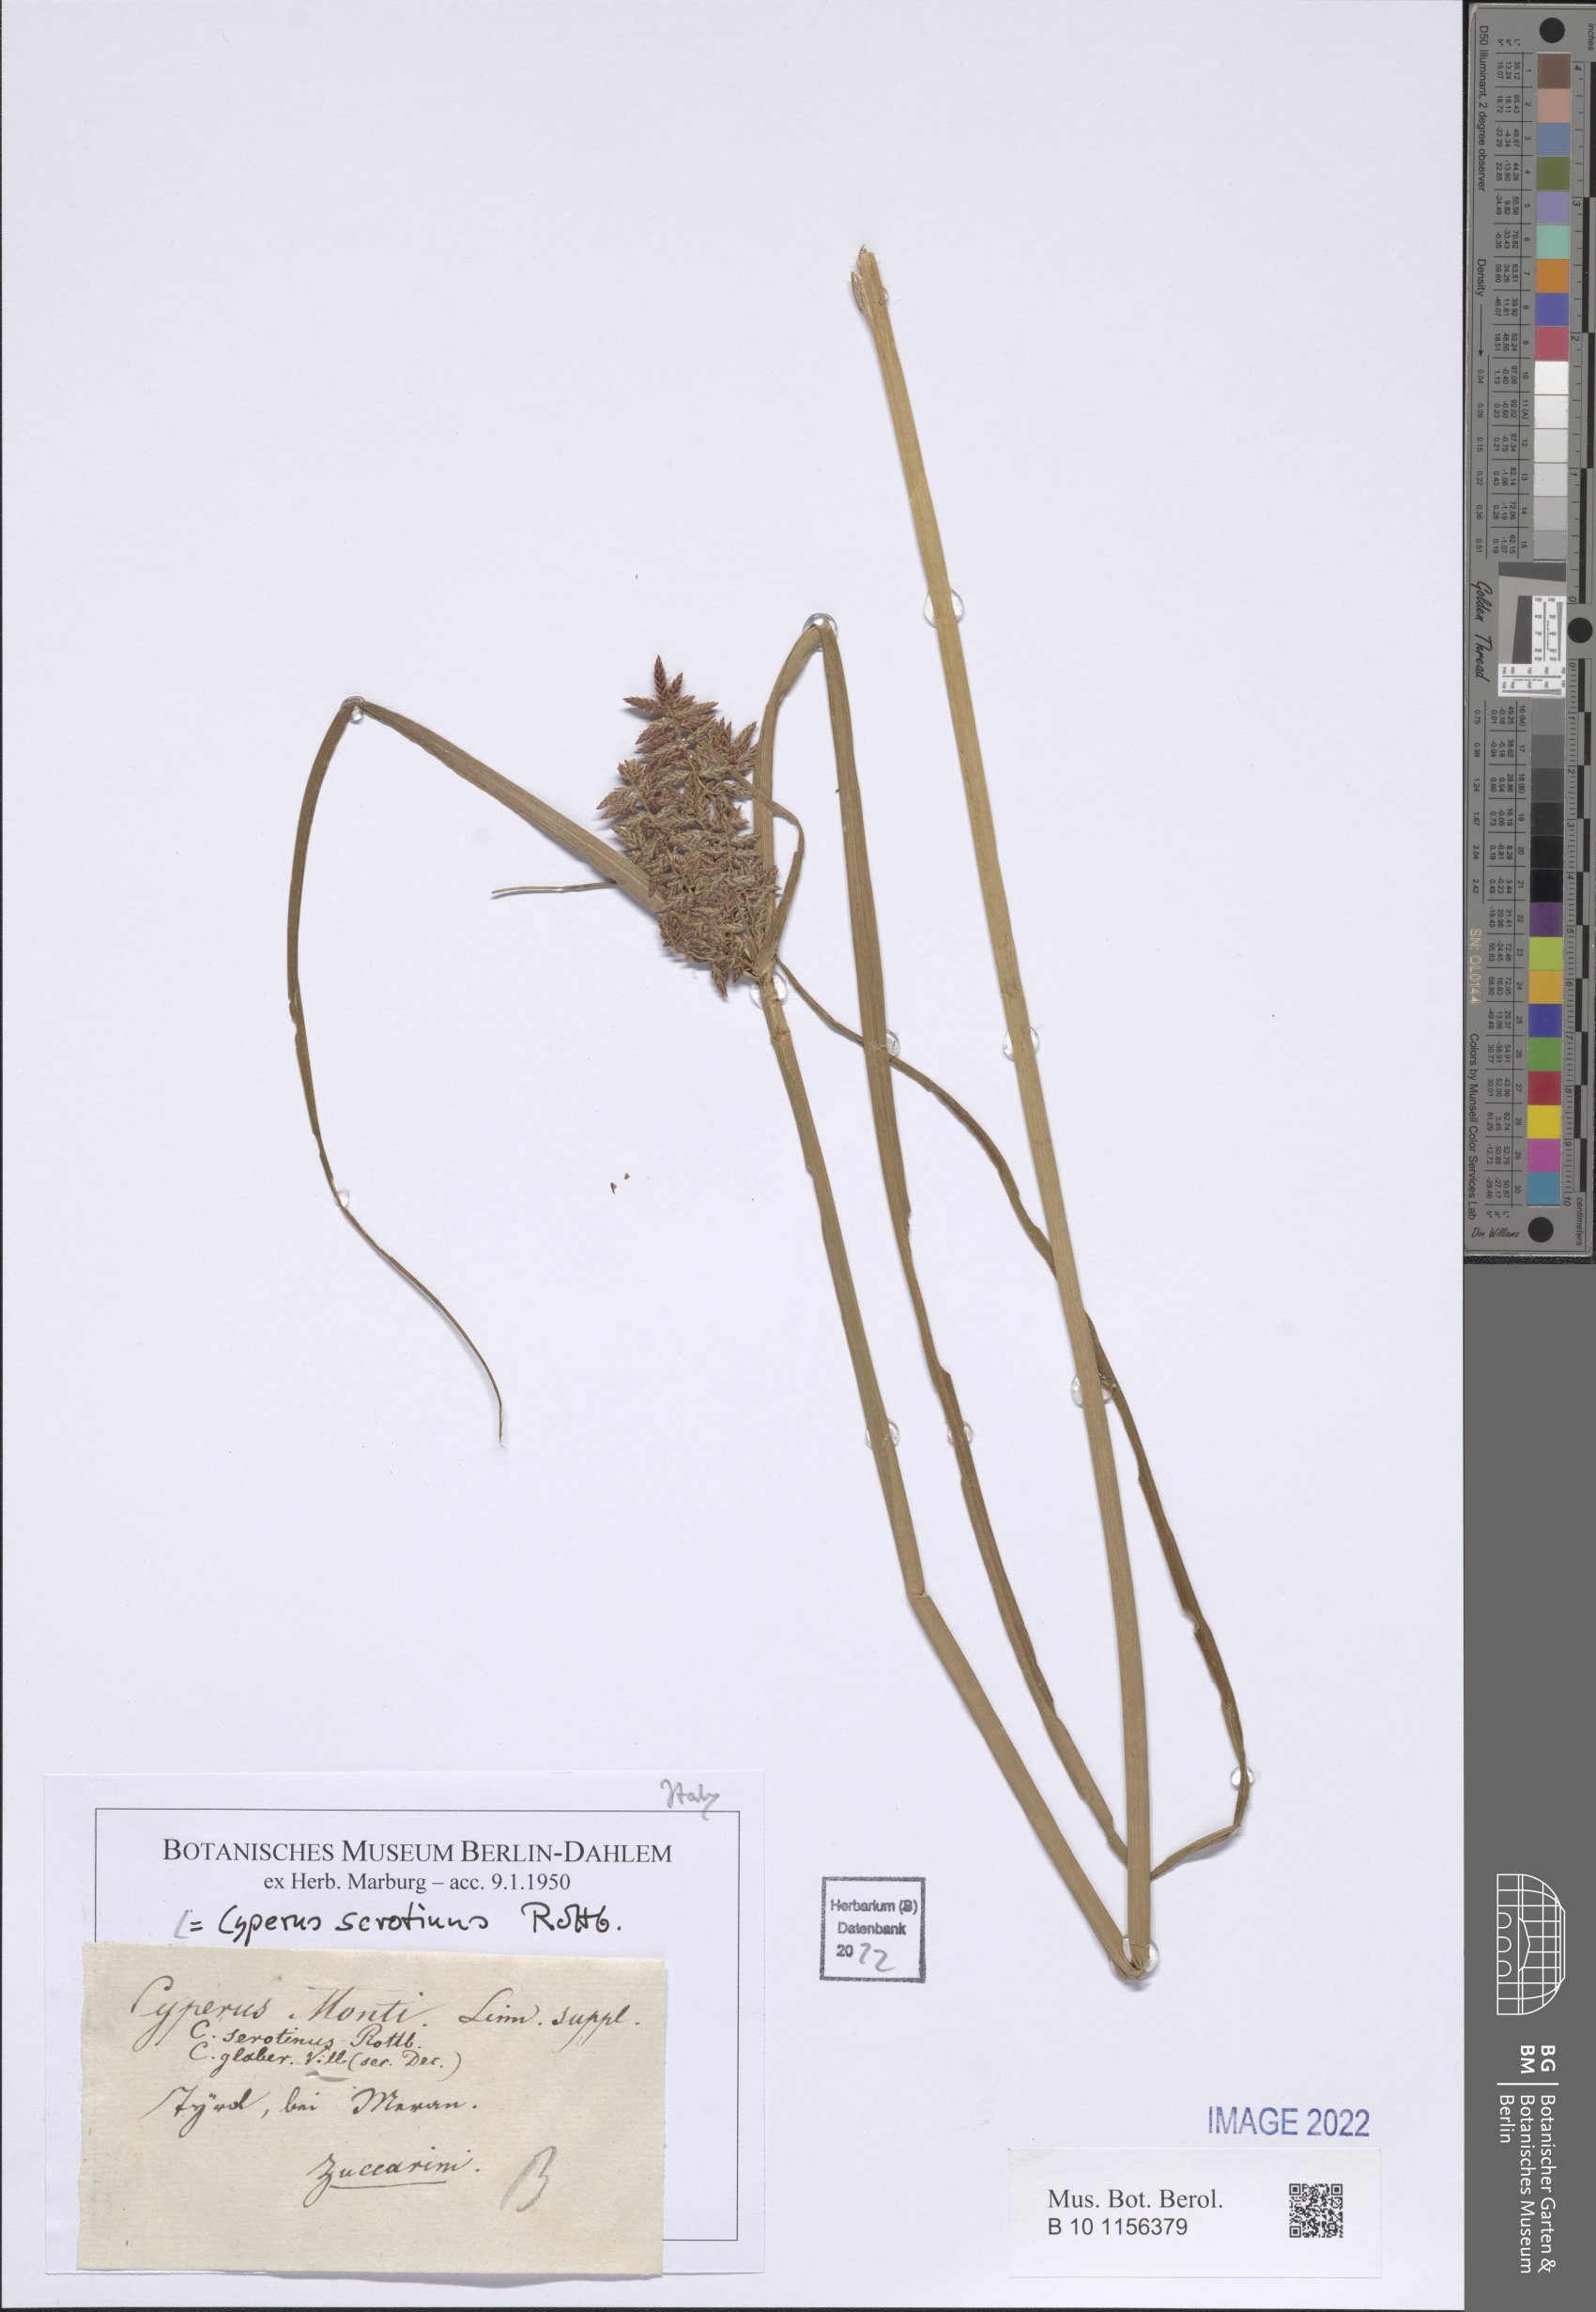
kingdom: Plantae
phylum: Tracheophyta
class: Liliopsida
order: Poales
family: Cyperaceae
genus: Cyperus
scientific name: Cyperus serotinus
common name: Tidalmarsh flatsedge
